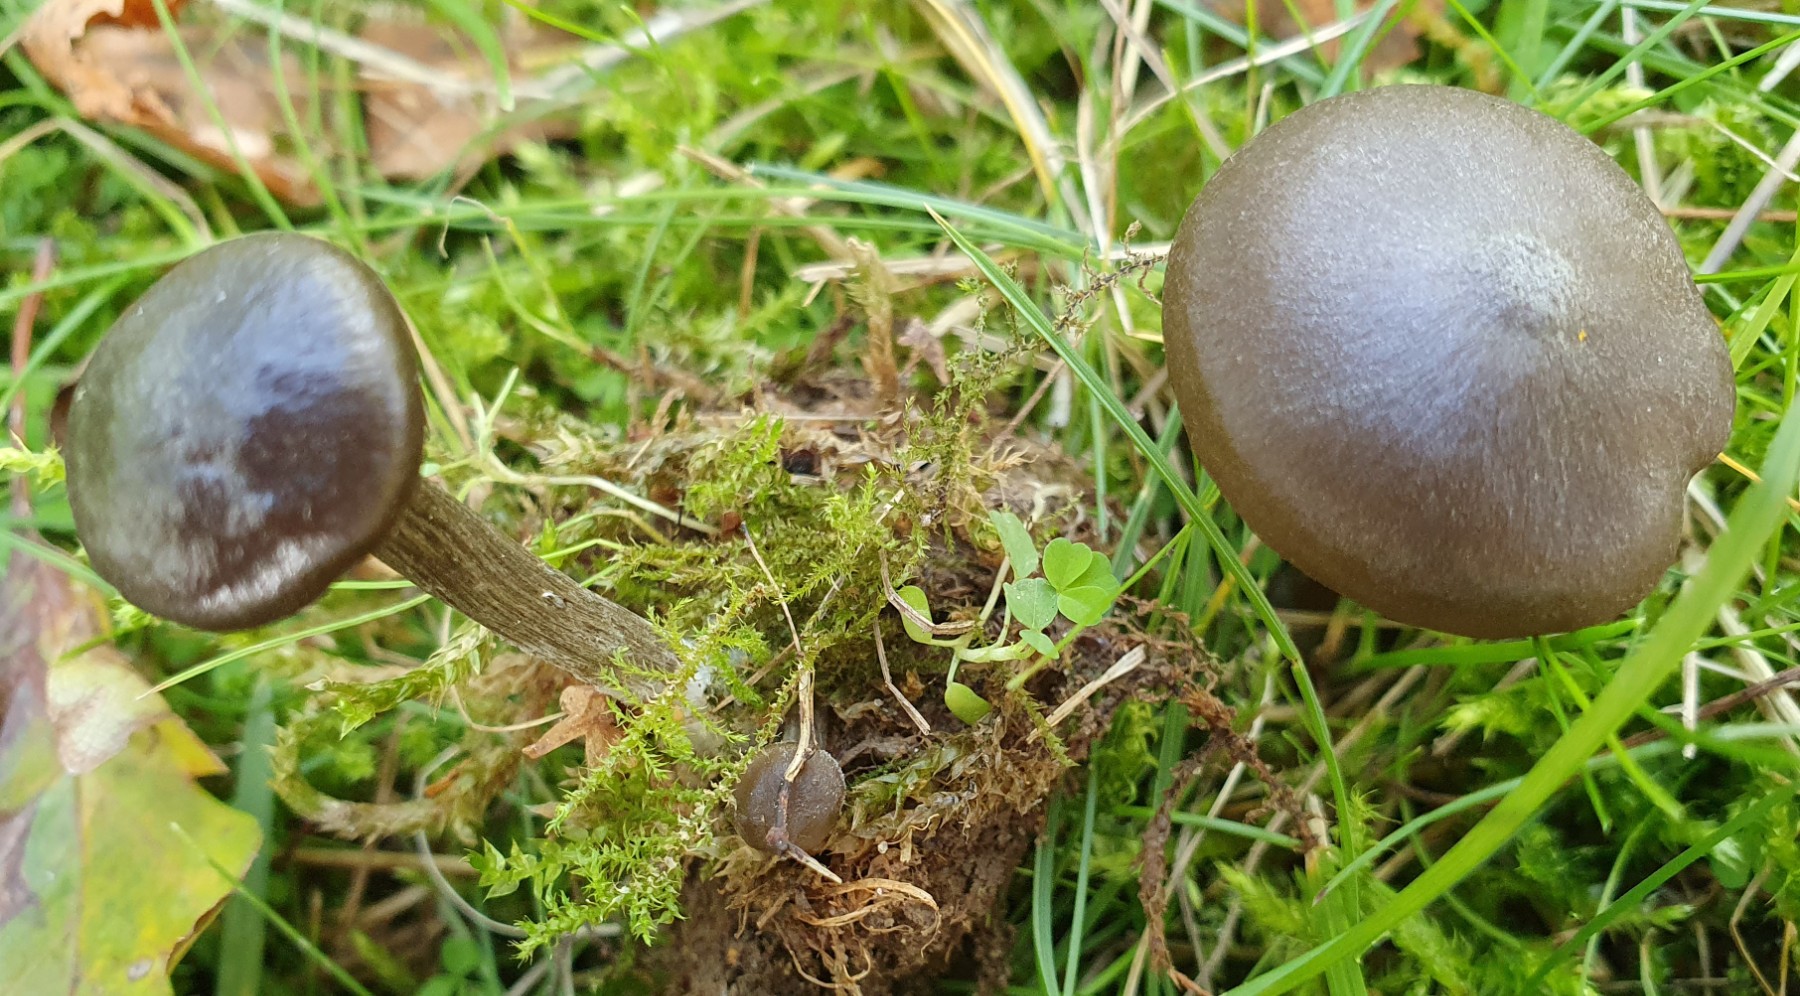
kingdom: Fungi
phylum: Basidiomycota
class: Agaricomycetes
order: Agaricales
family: Entolomataceae
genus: Entoloma
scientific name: Entoloma
